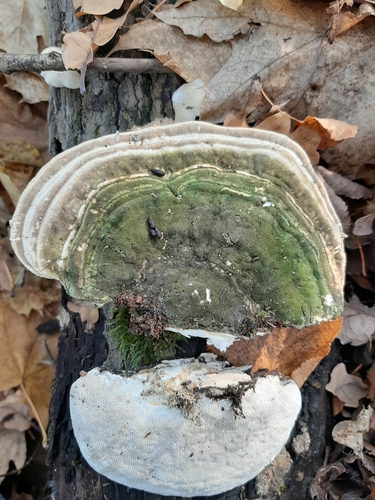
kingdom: Fungi
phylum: Basidiomycota
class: Agaricomycetes
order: Polyporales
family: Polyporaceae
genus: Trametes
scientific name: Trametes gibbosa
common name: Lumpy bracket
